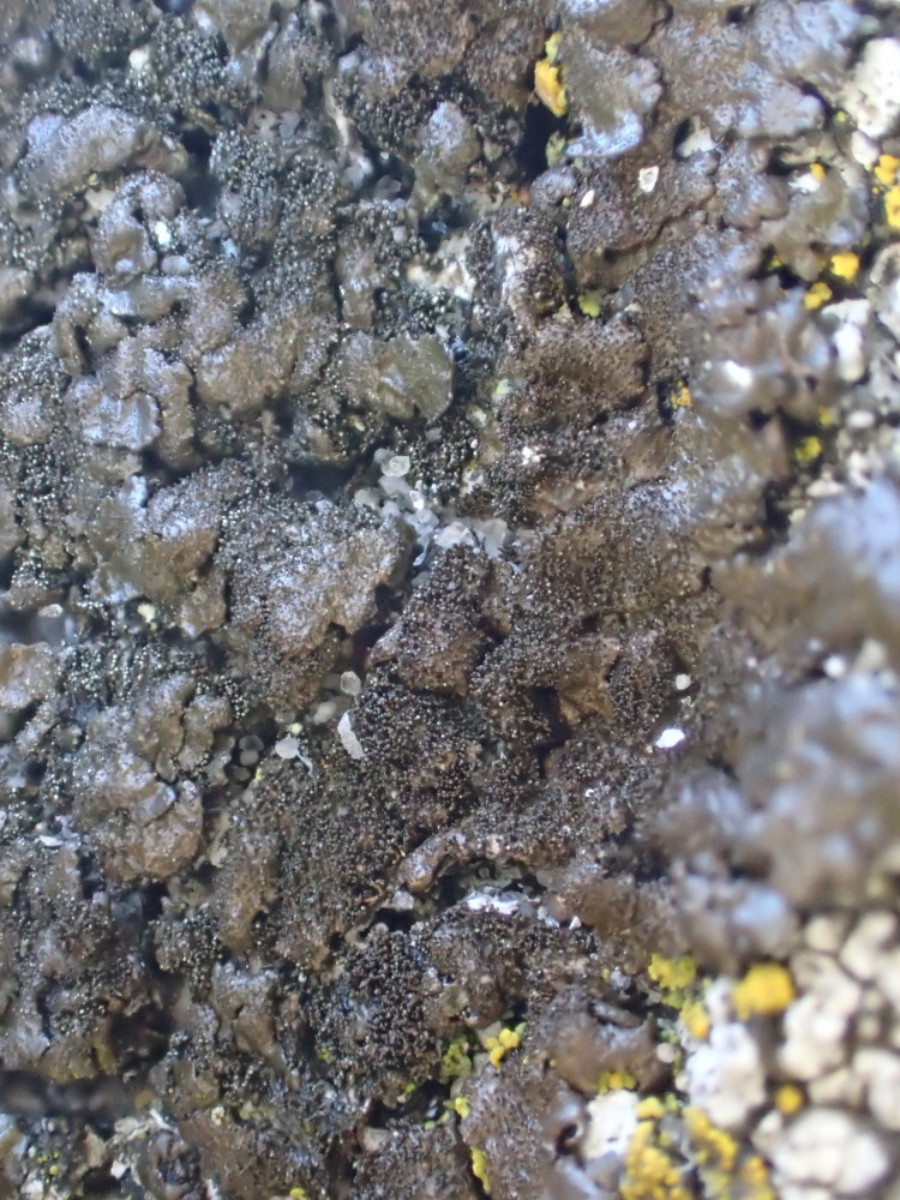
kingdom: Fungi
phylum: Ascomycota
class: Lecanoromycetes
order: Lecanorales
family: Parmeliaceae
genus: Melanelixia
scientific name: Melanelixia fuliginosa
